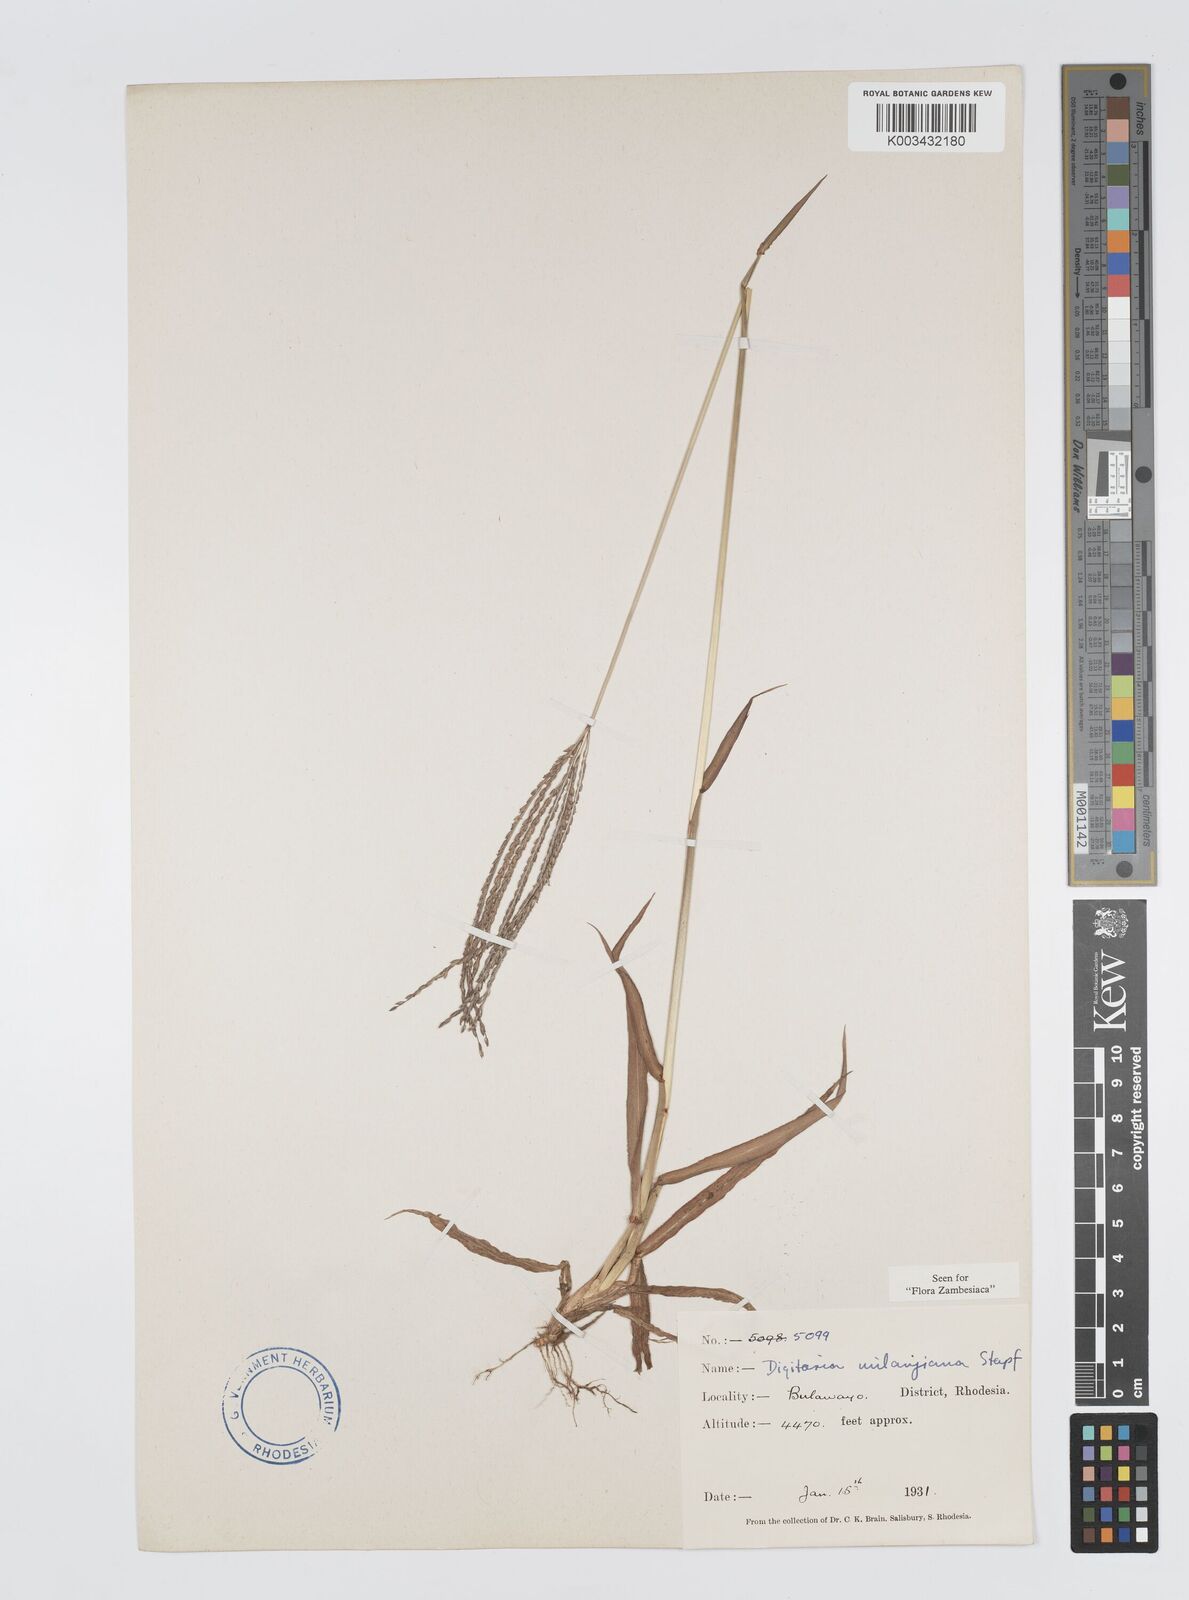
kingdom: Plantae
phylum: Tracheophyta
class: Liliopsida
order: Poales
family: Poaceae
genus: Digitaria
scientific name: Digitaria milanjiana
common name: Madagascar crabgrass
